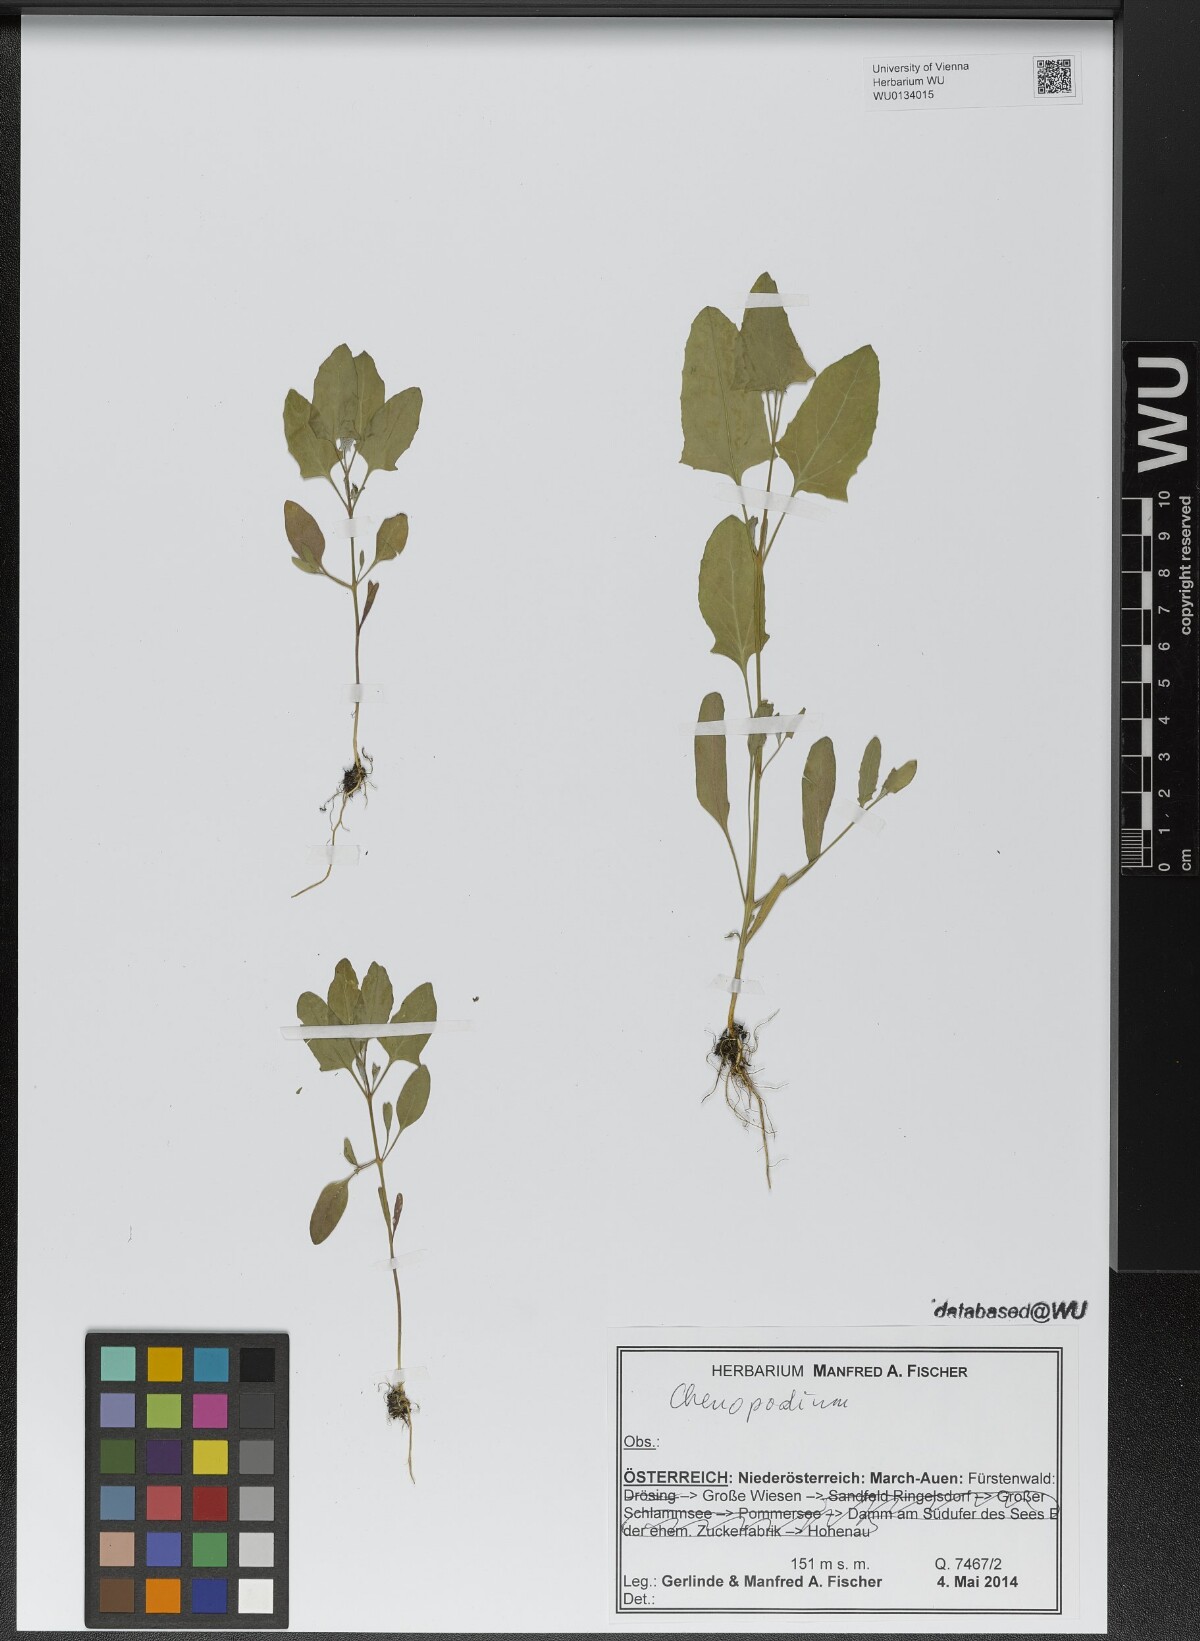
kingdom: Plantae
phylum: Tracheophyta
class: Magnoliopsida
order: Caryophyllales
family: Amaranthaceae
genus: Chenopodium
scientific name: Chenopodium
